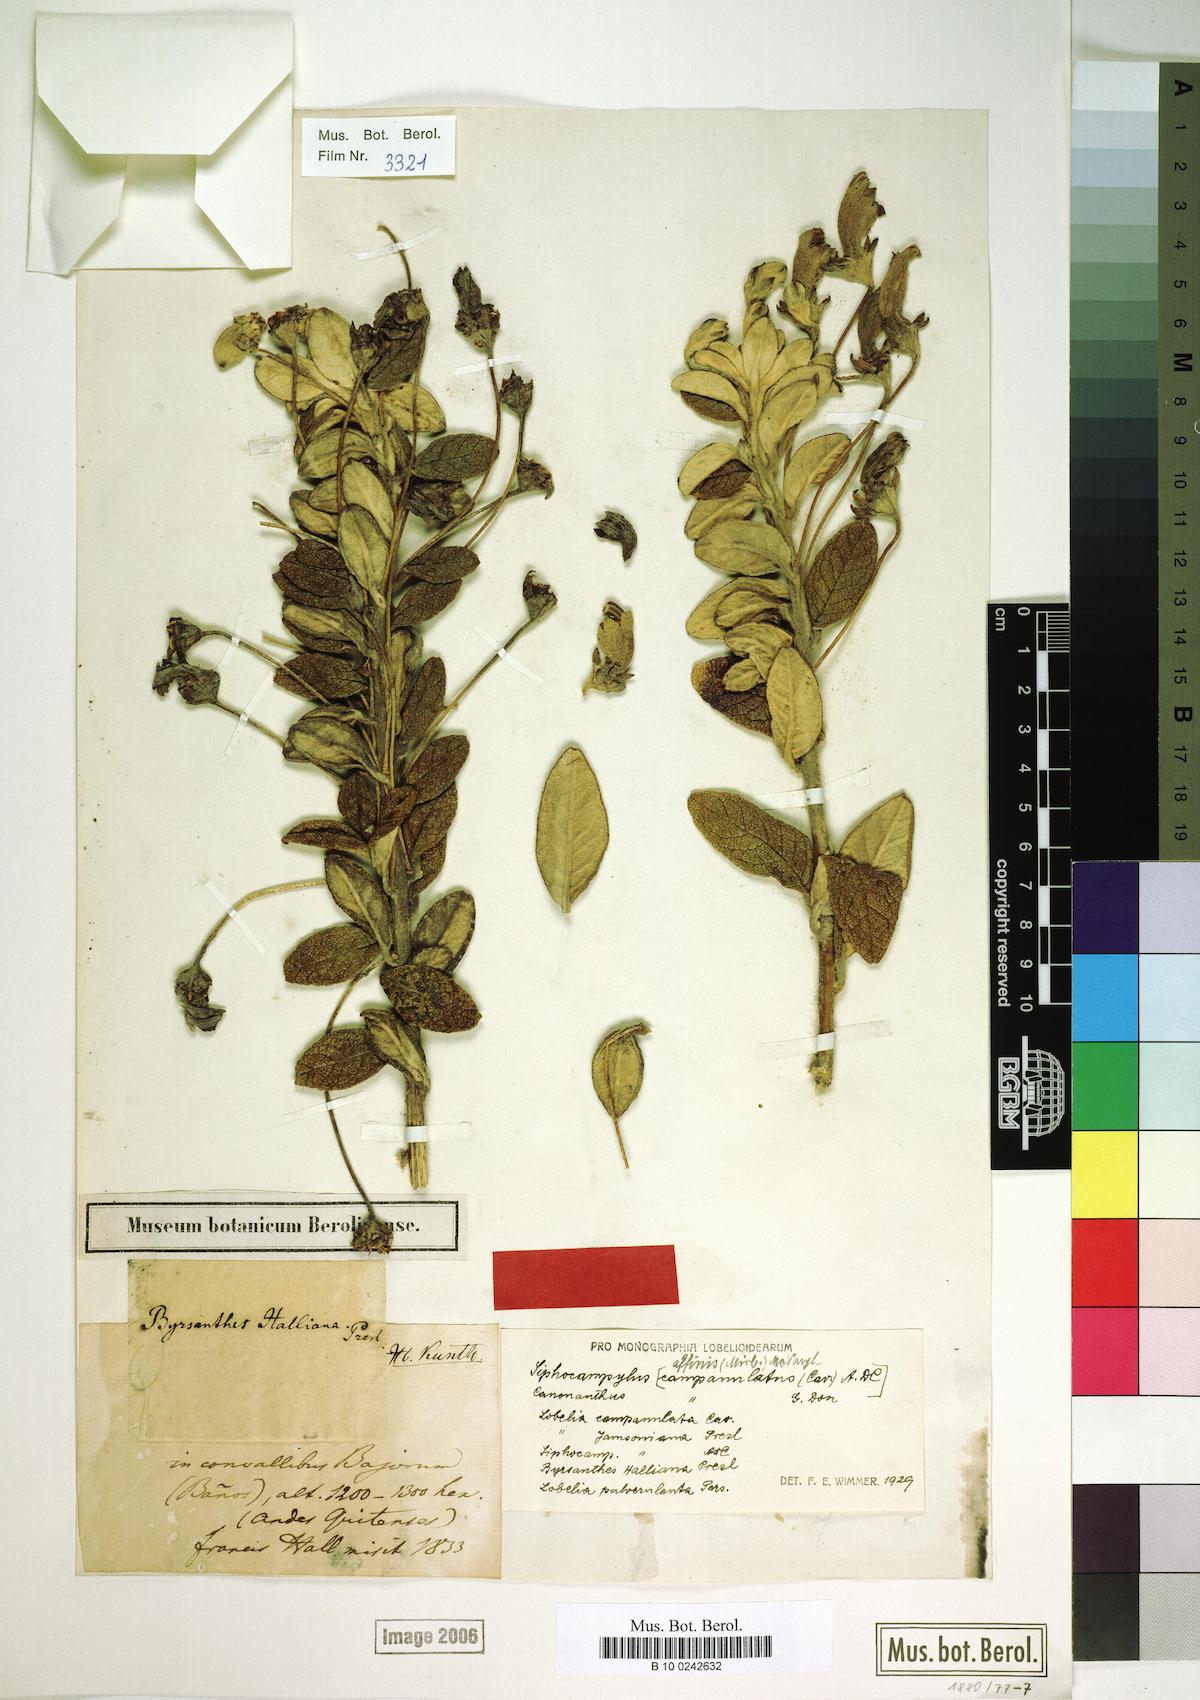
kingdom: Plantae
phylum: Tracheophyta
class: Magnoliopsida
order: Asterales
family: Campanulaceae
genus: Siphocampylus
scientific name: Siphocampylus affinis
